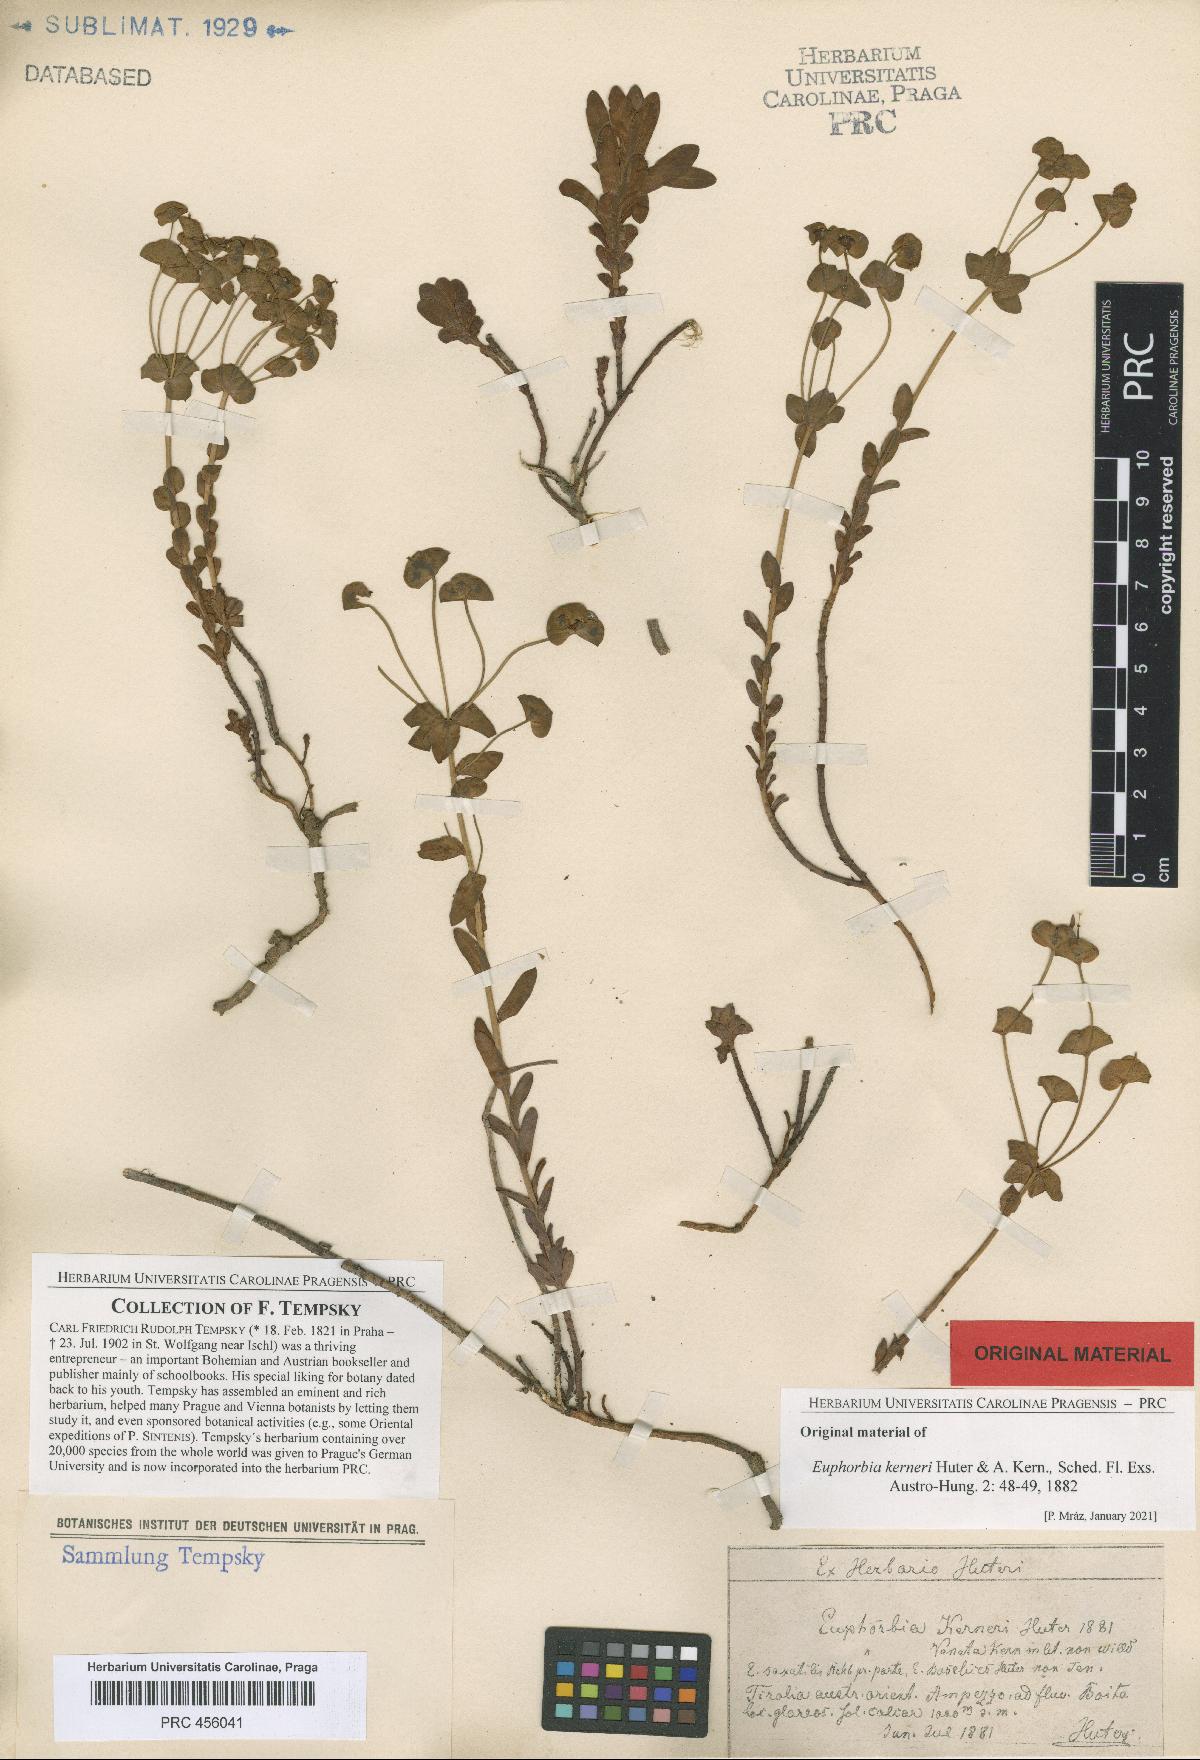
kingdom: Plantae
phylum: Tracheophyta
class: Magnoliopsida
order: Malpighiales
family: Euphorbiaceae
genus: Euphorbia
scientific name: Euphorbia kerneri
